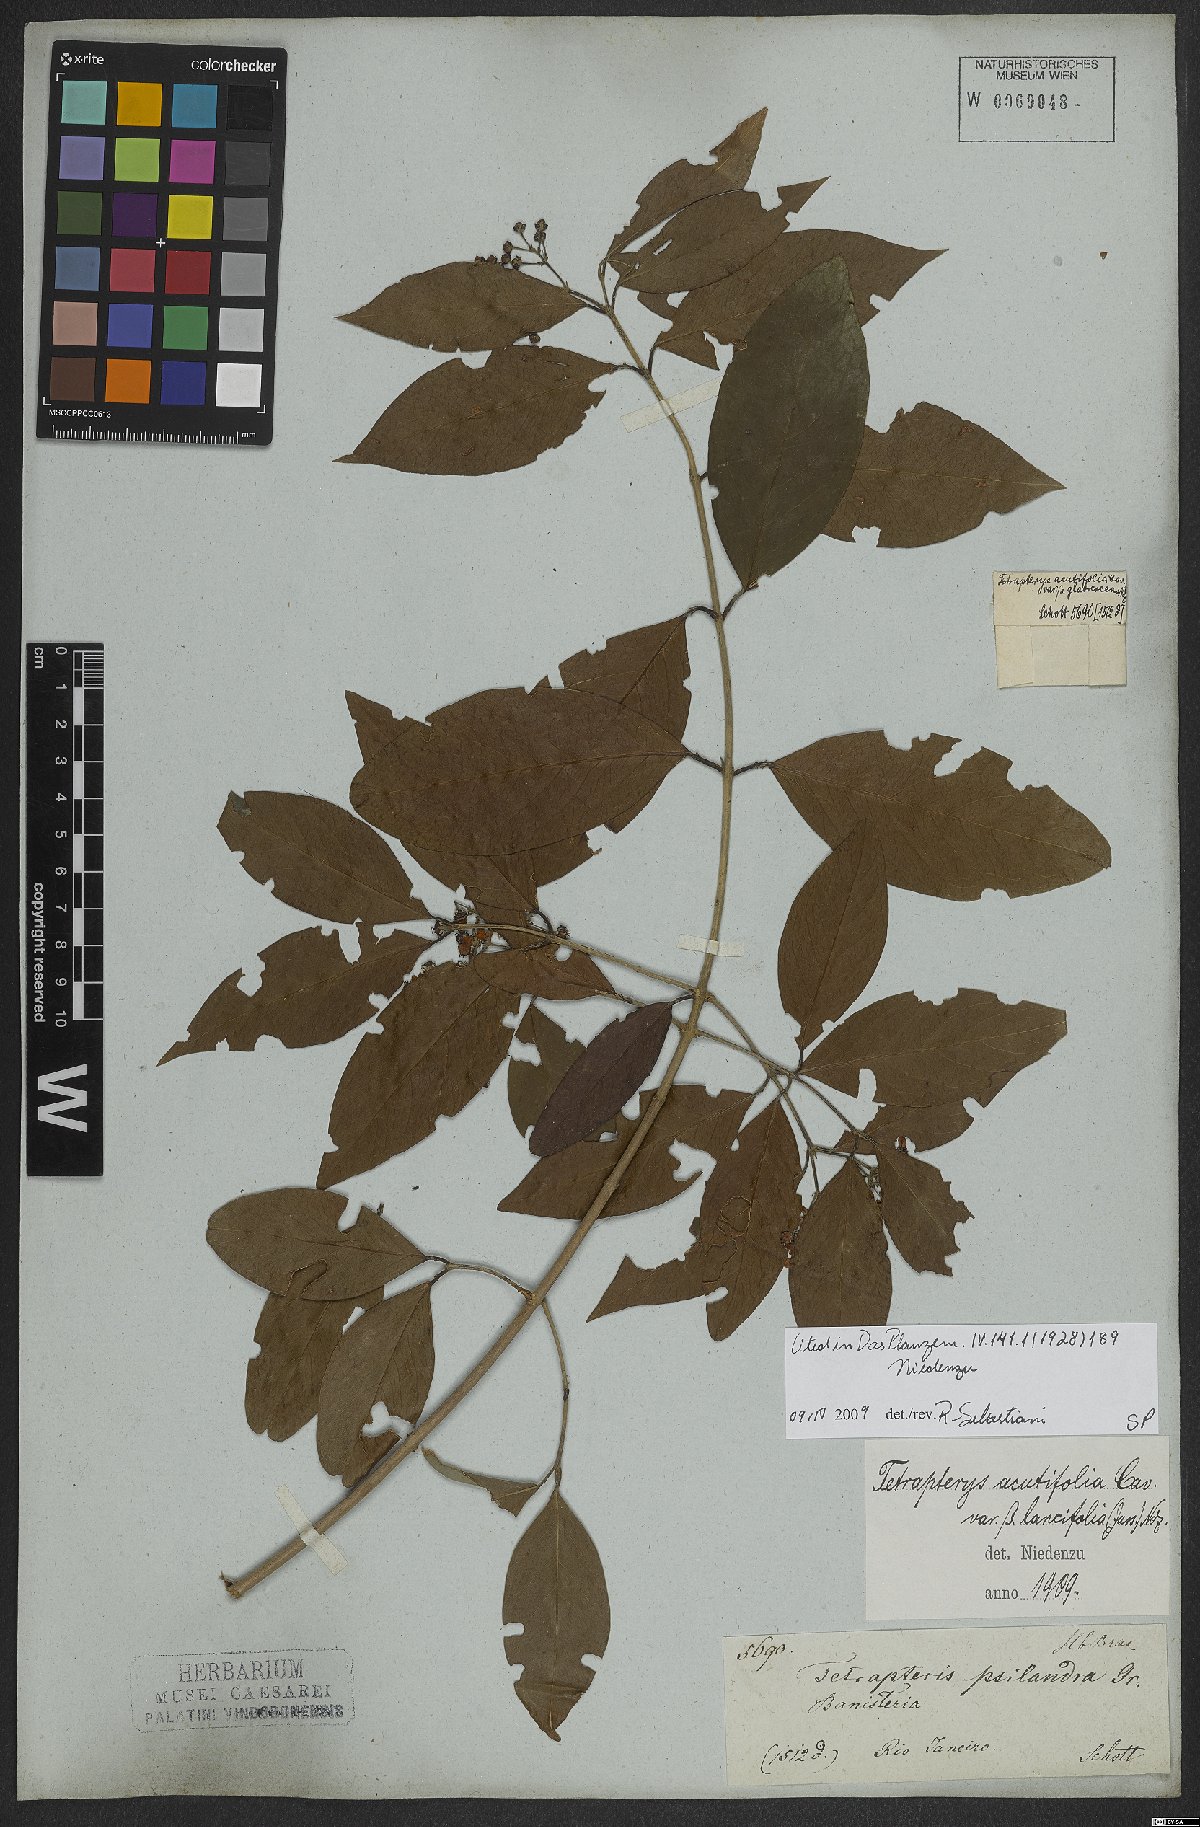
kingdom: Plantae
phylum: Tracheophyta
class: Magnoliopsida
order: Malpighiales
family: Malpighiaceae
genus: Niedenzuella
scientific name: Niedenzuella acutifolia
